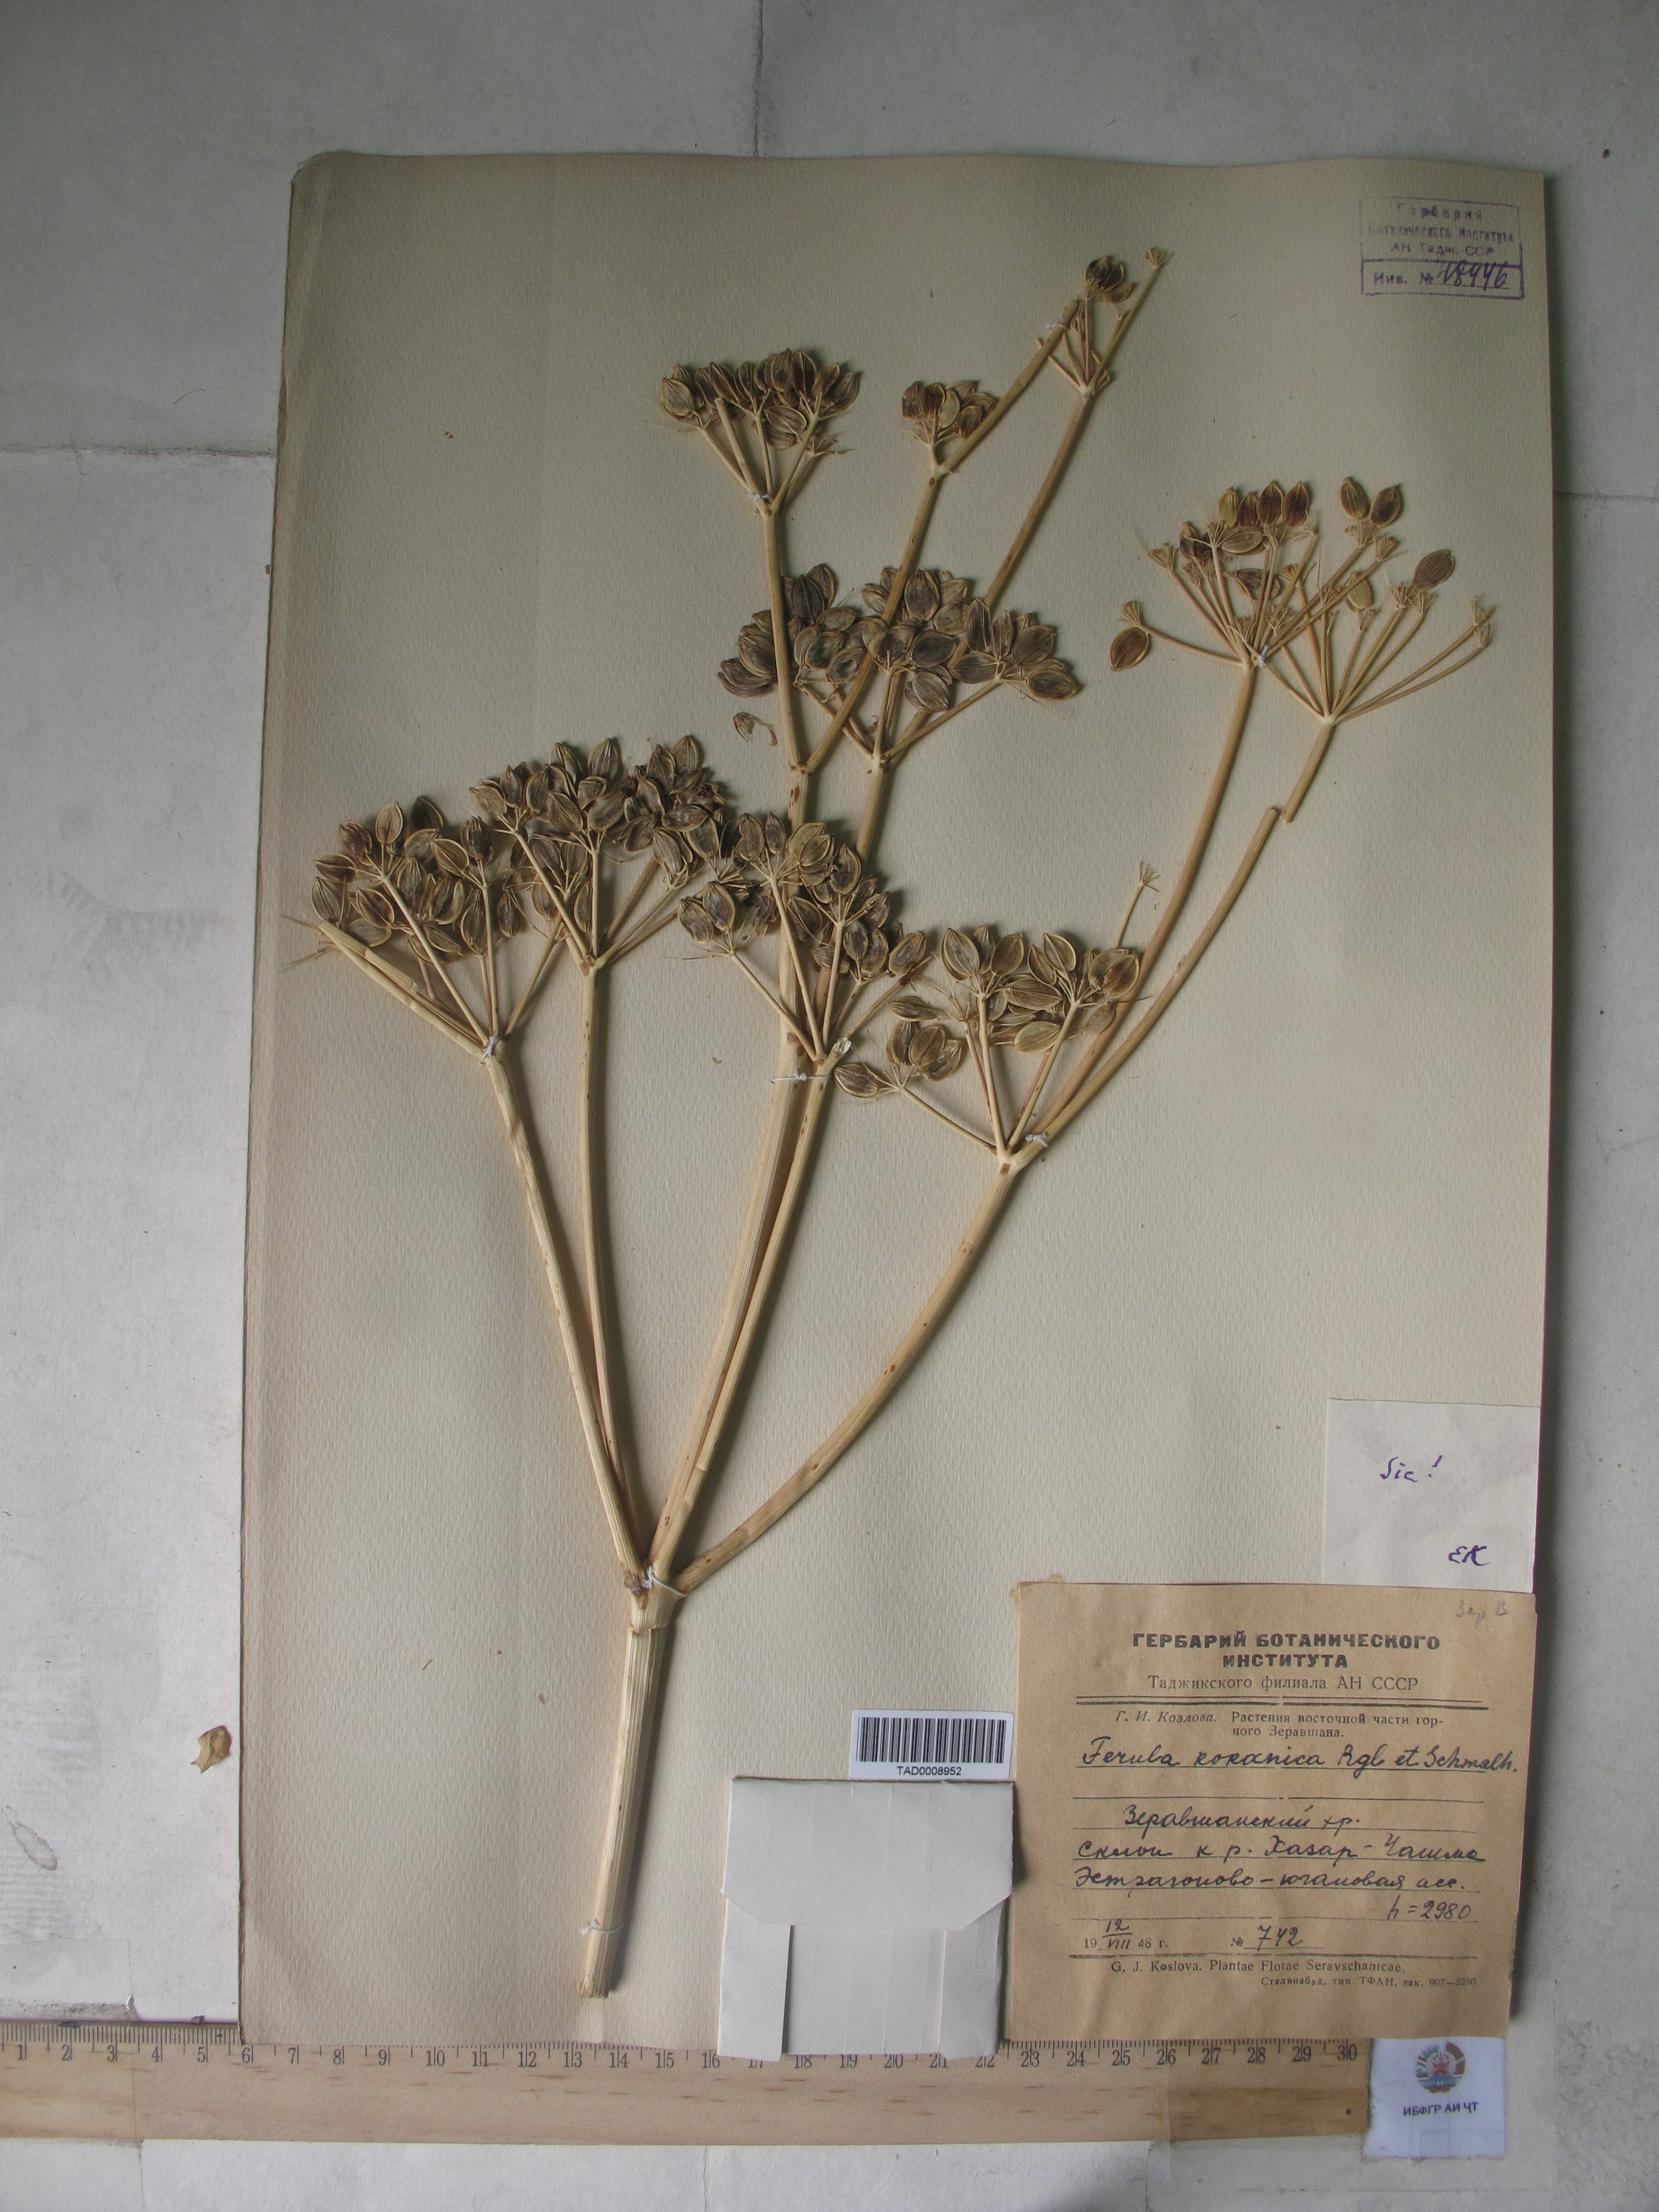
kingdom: Plantae
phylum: Tracheophyta
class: Magnoliopsida
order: Apiales
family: Apiaceae
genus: Ferula
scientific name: Ferula kokanica
